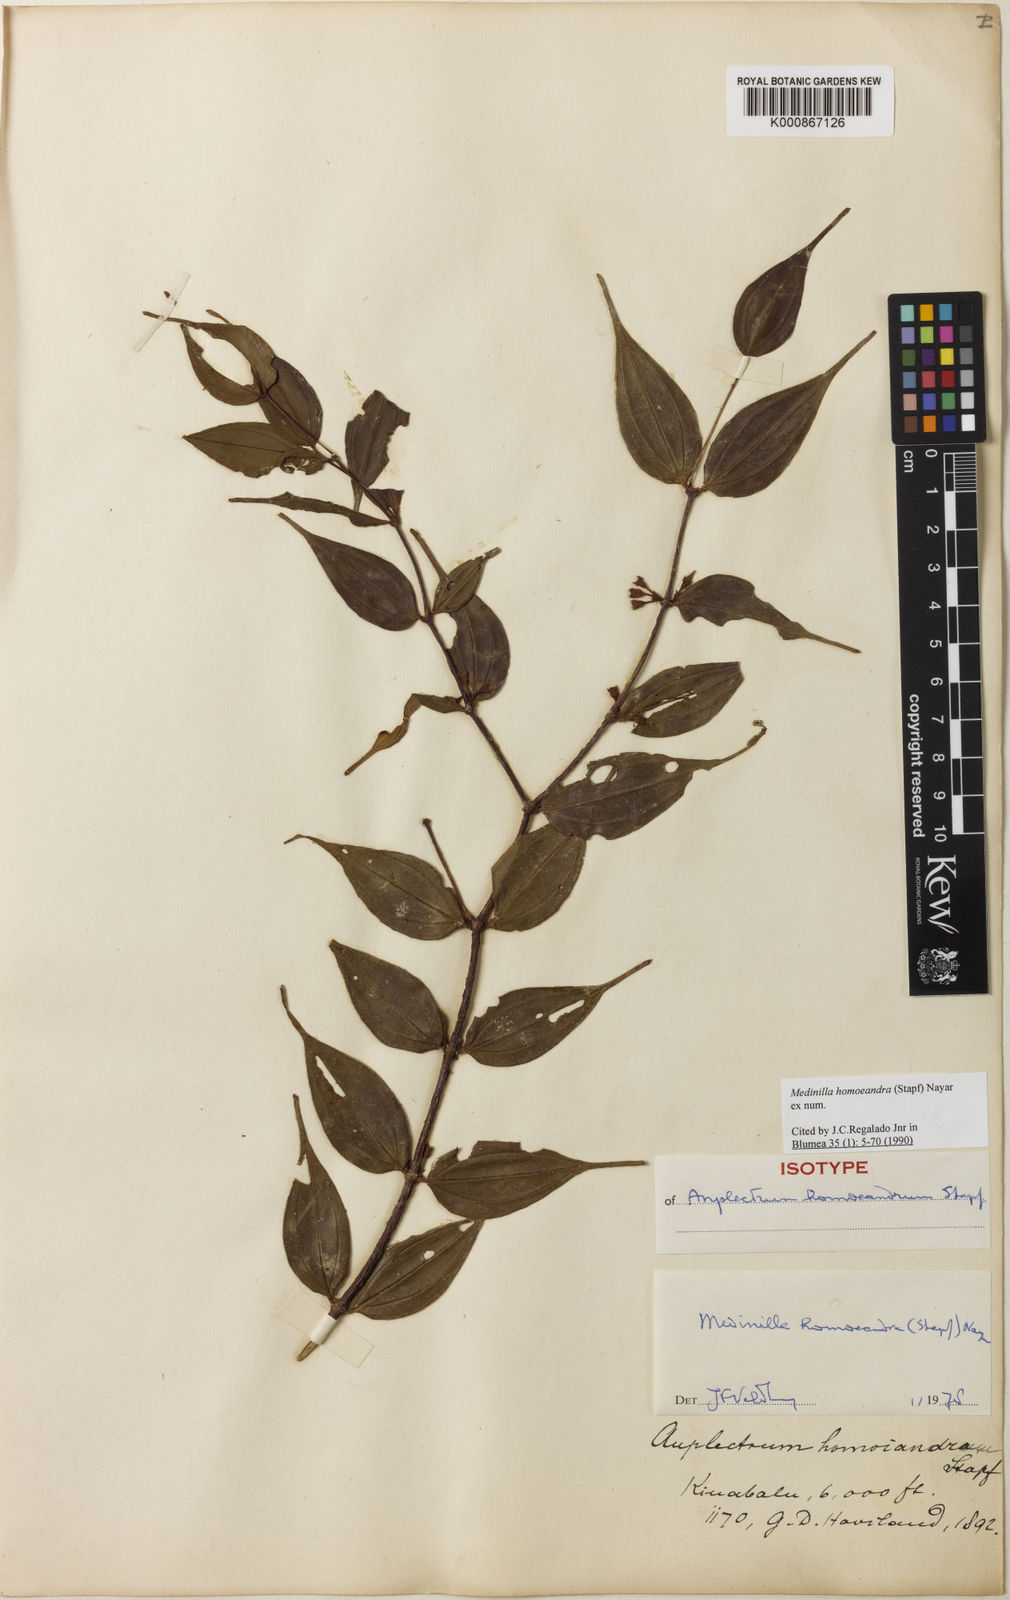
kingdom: Plantae
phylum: Tracheophyta
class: Magnoliopsida
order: Myrtales
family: Melastomataceae
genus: Medinilla
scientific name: Medinilla homoeandra
